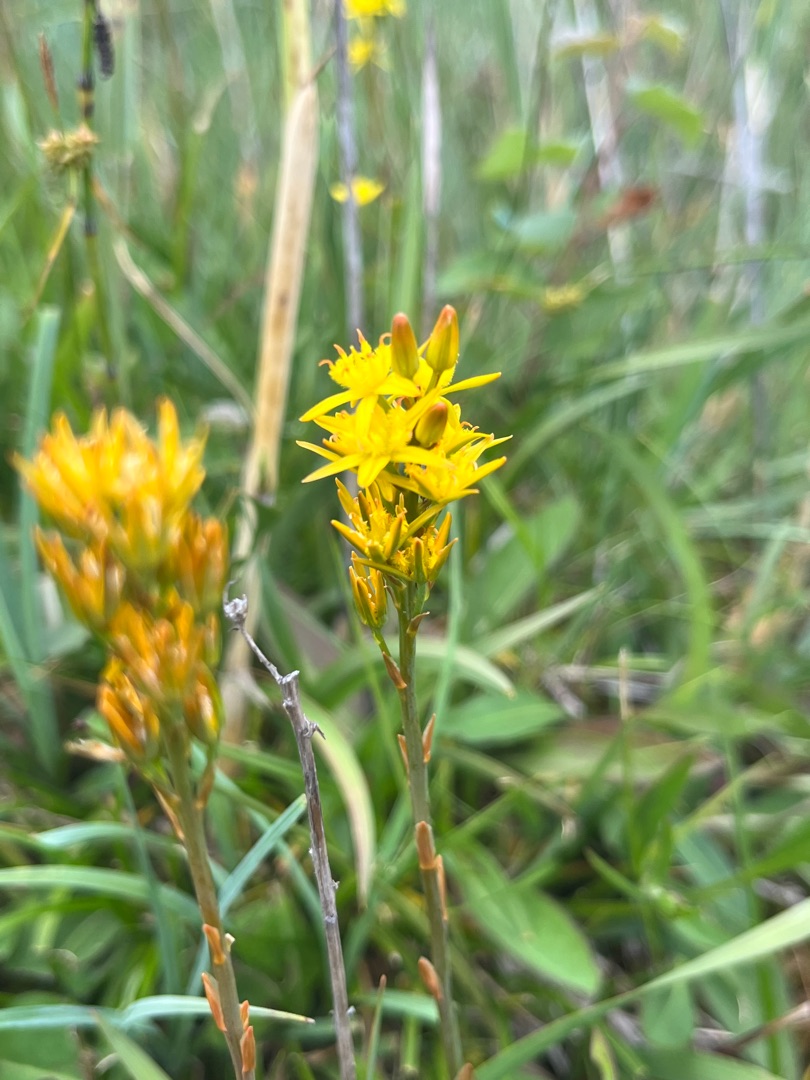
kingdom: Plantae
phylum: Tracheophyta
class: Liliopsida
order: Dioscoreales
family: Nartheciaceae
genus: Narthecium
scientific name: Narthecium ossifragum
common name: Benbræk
